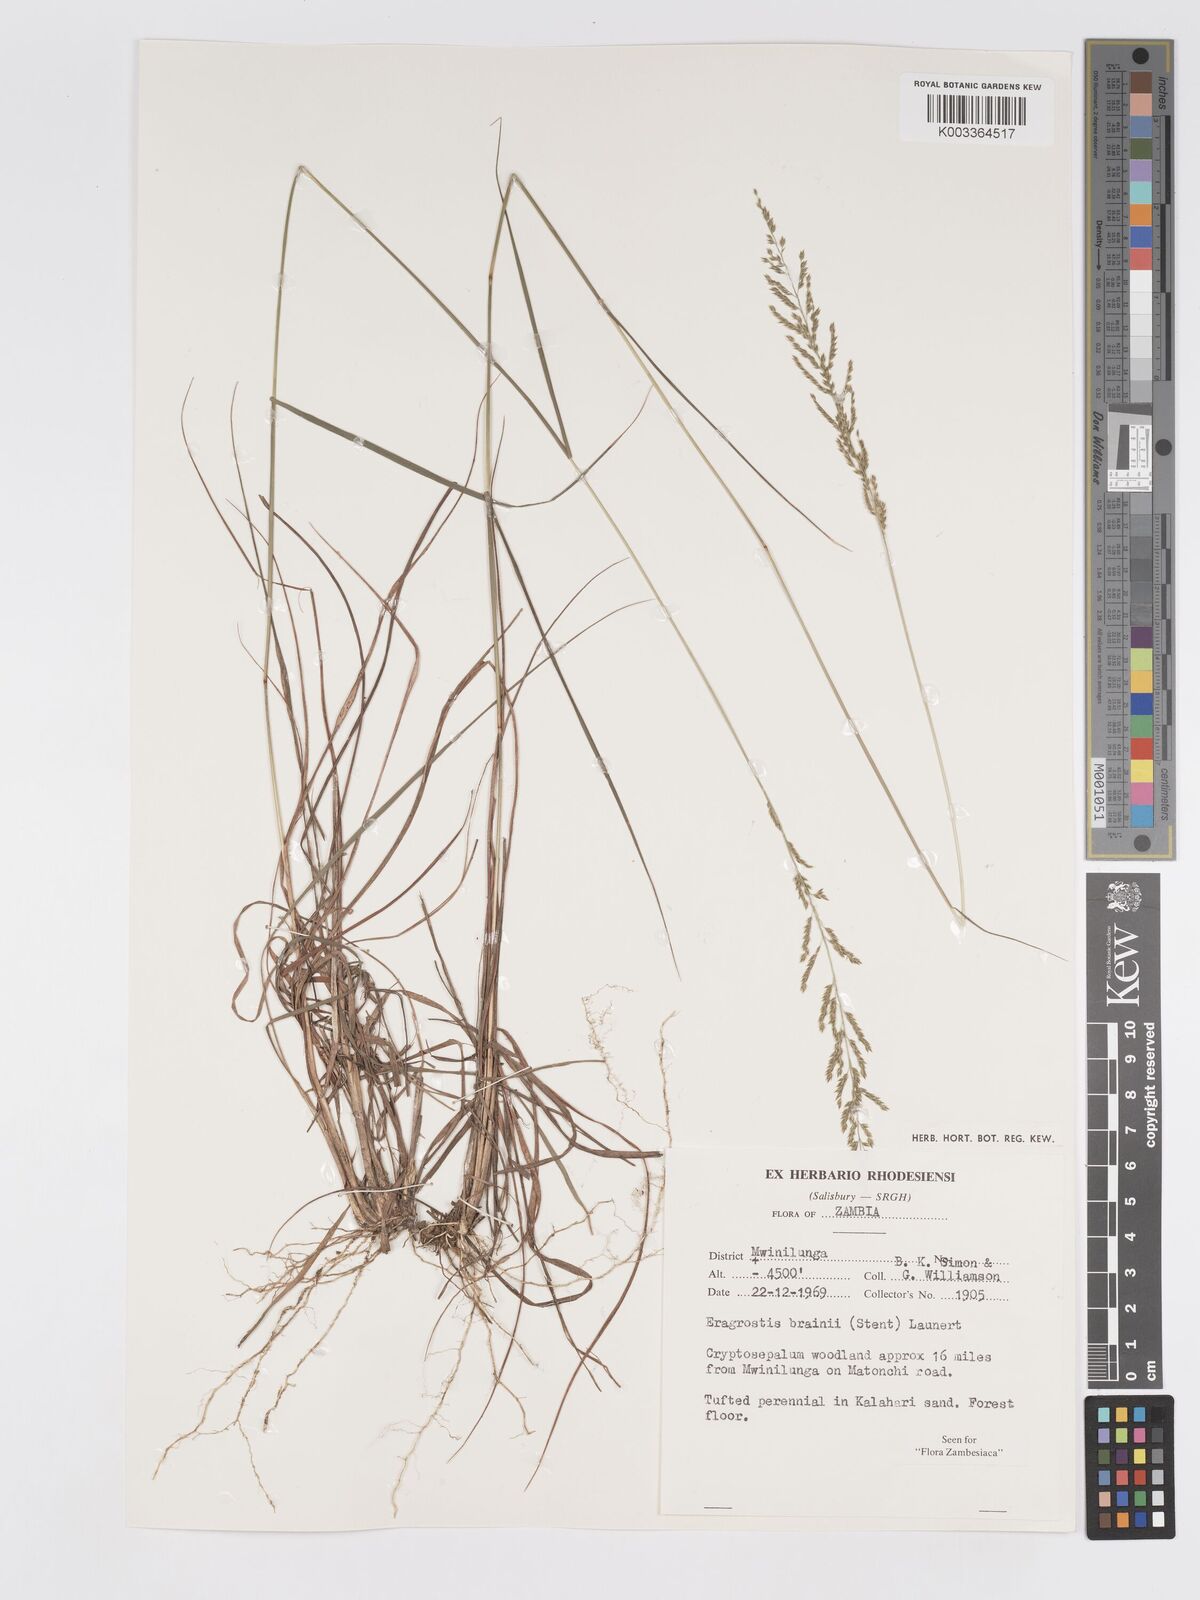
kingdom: Plantae
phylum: Tracheophyta
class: Liliopsida
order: Poales
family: Poaceae
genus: Eragrostis
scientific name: Eragrostis brainii
